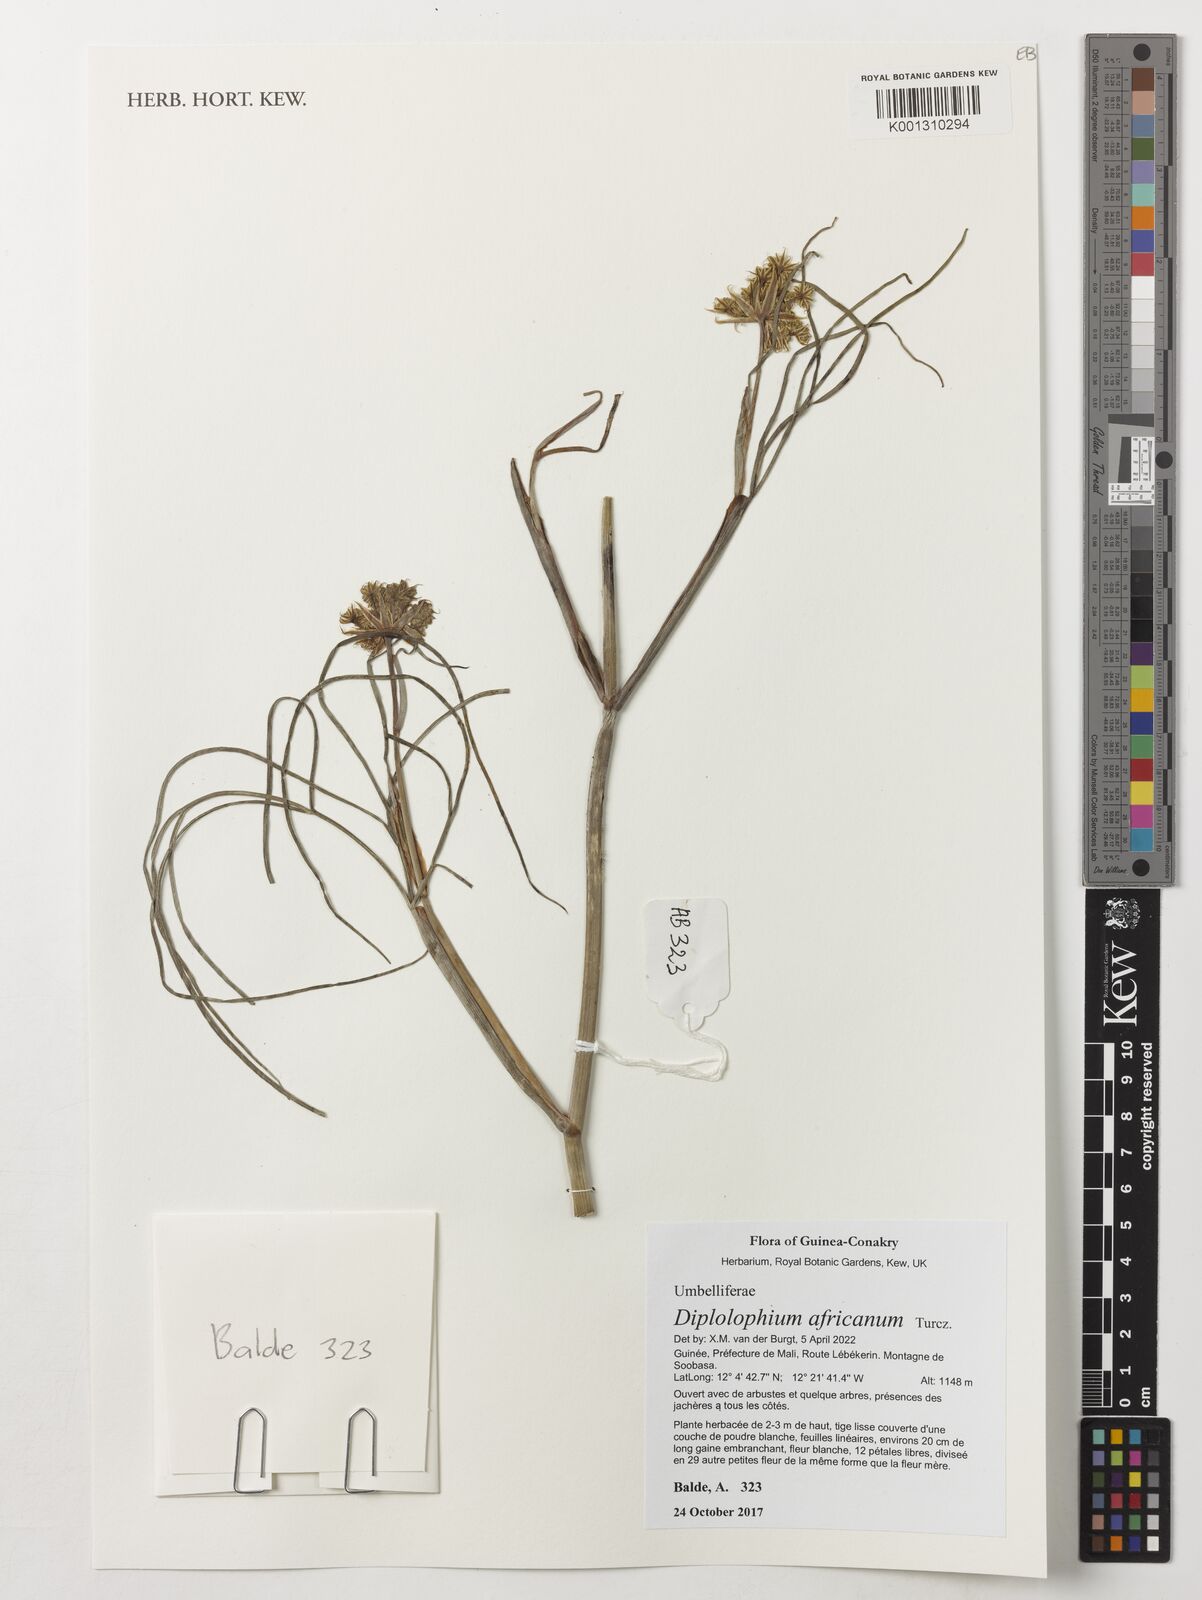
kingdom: Plantae
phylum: Tracheophyta
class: Magnoliopsida
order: Apiales
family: Apiaceae
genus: Diplolophium
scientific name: Diplolophium africanum
